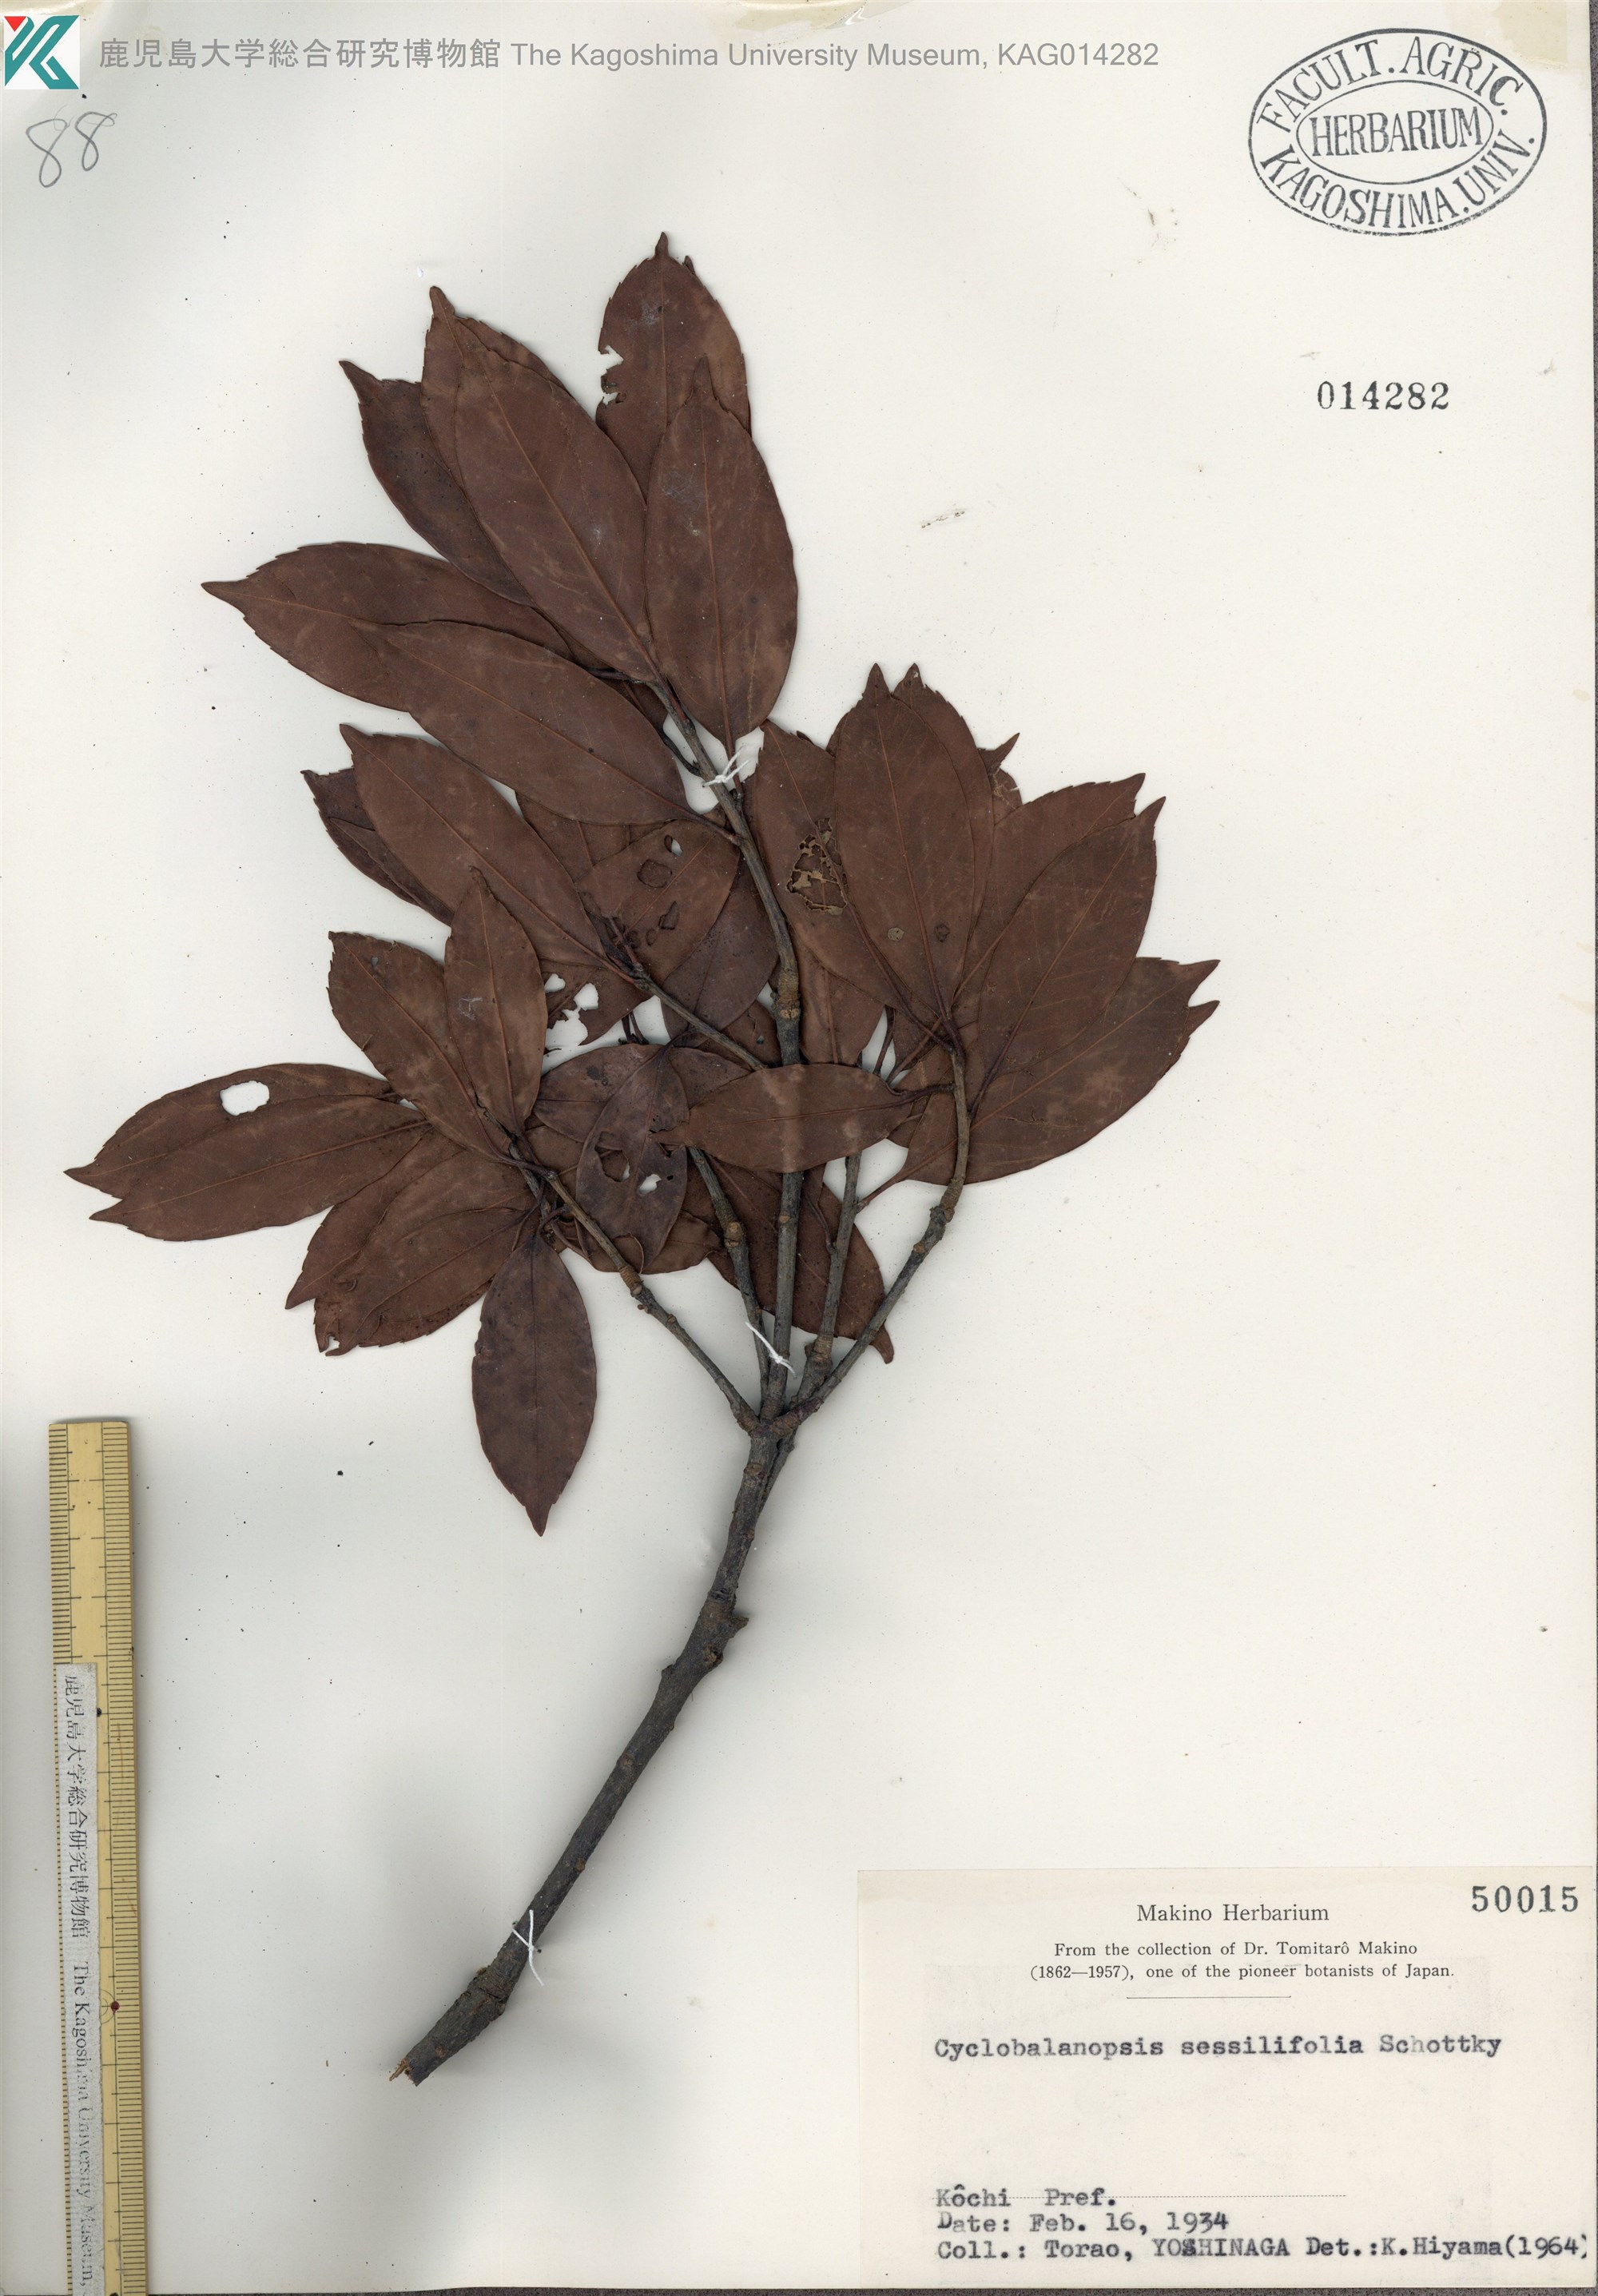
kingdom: Plantae
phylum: Tracheophyta
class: Magnoliopsida
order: Fagales
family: Fagaceae
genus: Quercus
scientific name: Quercus sessilifolia
